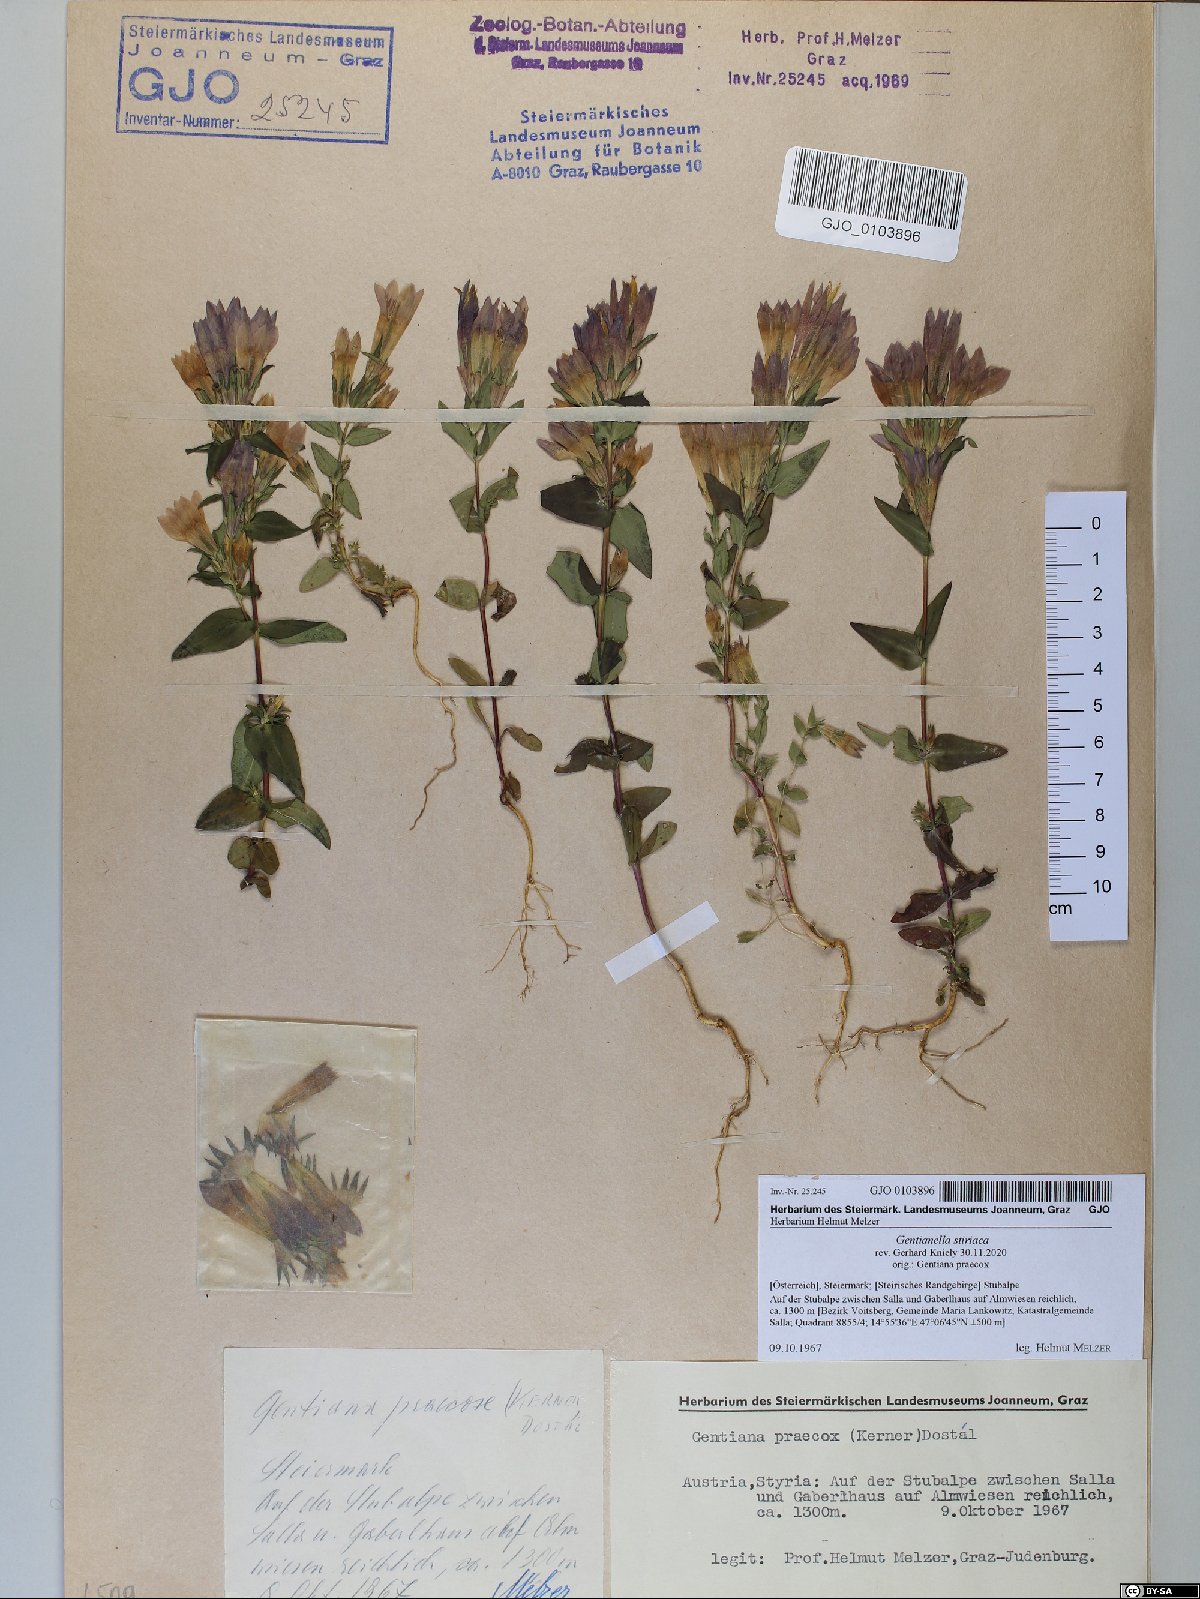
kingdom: Plantae
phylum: Tracheophyta
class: Magnoliopsida
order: Gentianales
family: Gentianaceae
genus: Gentianella
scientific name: Gentianella styriaca
